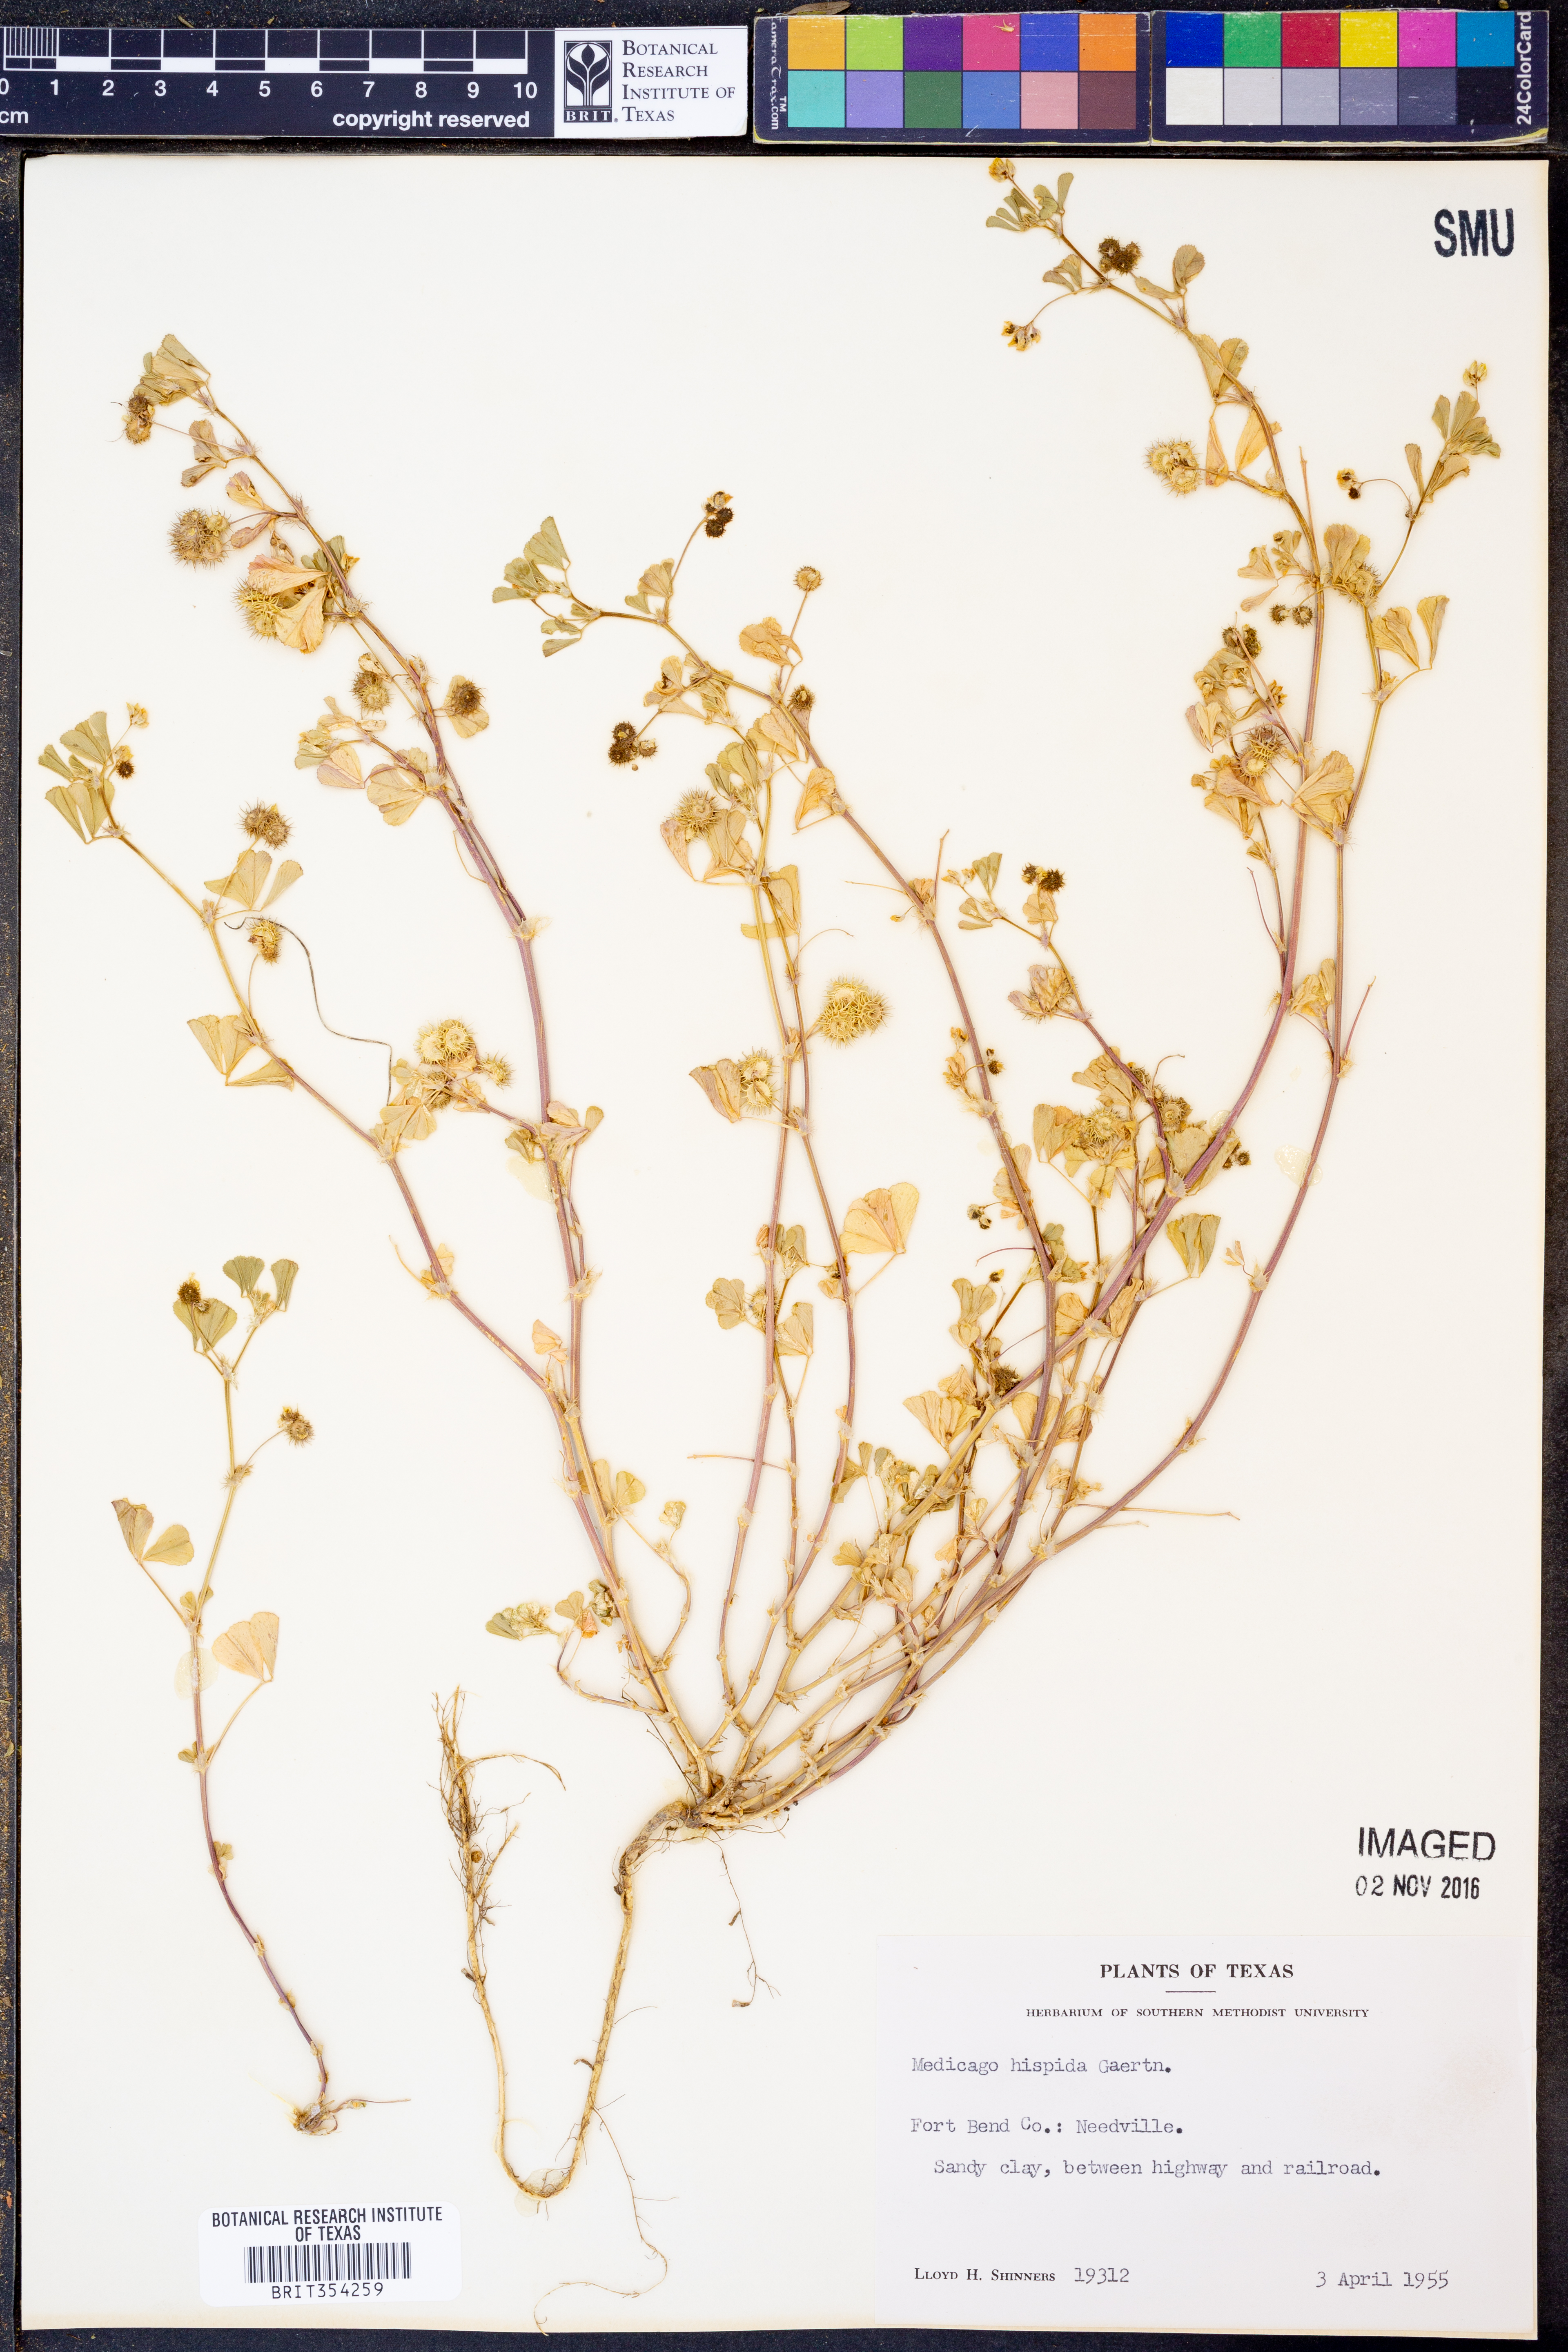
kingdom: Plantae
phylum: Tracheophyta
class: Magnoliopsida
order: Fabales
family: Fabaceae
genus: Medicago
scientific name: Medicago polymorpha
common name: Burclover
